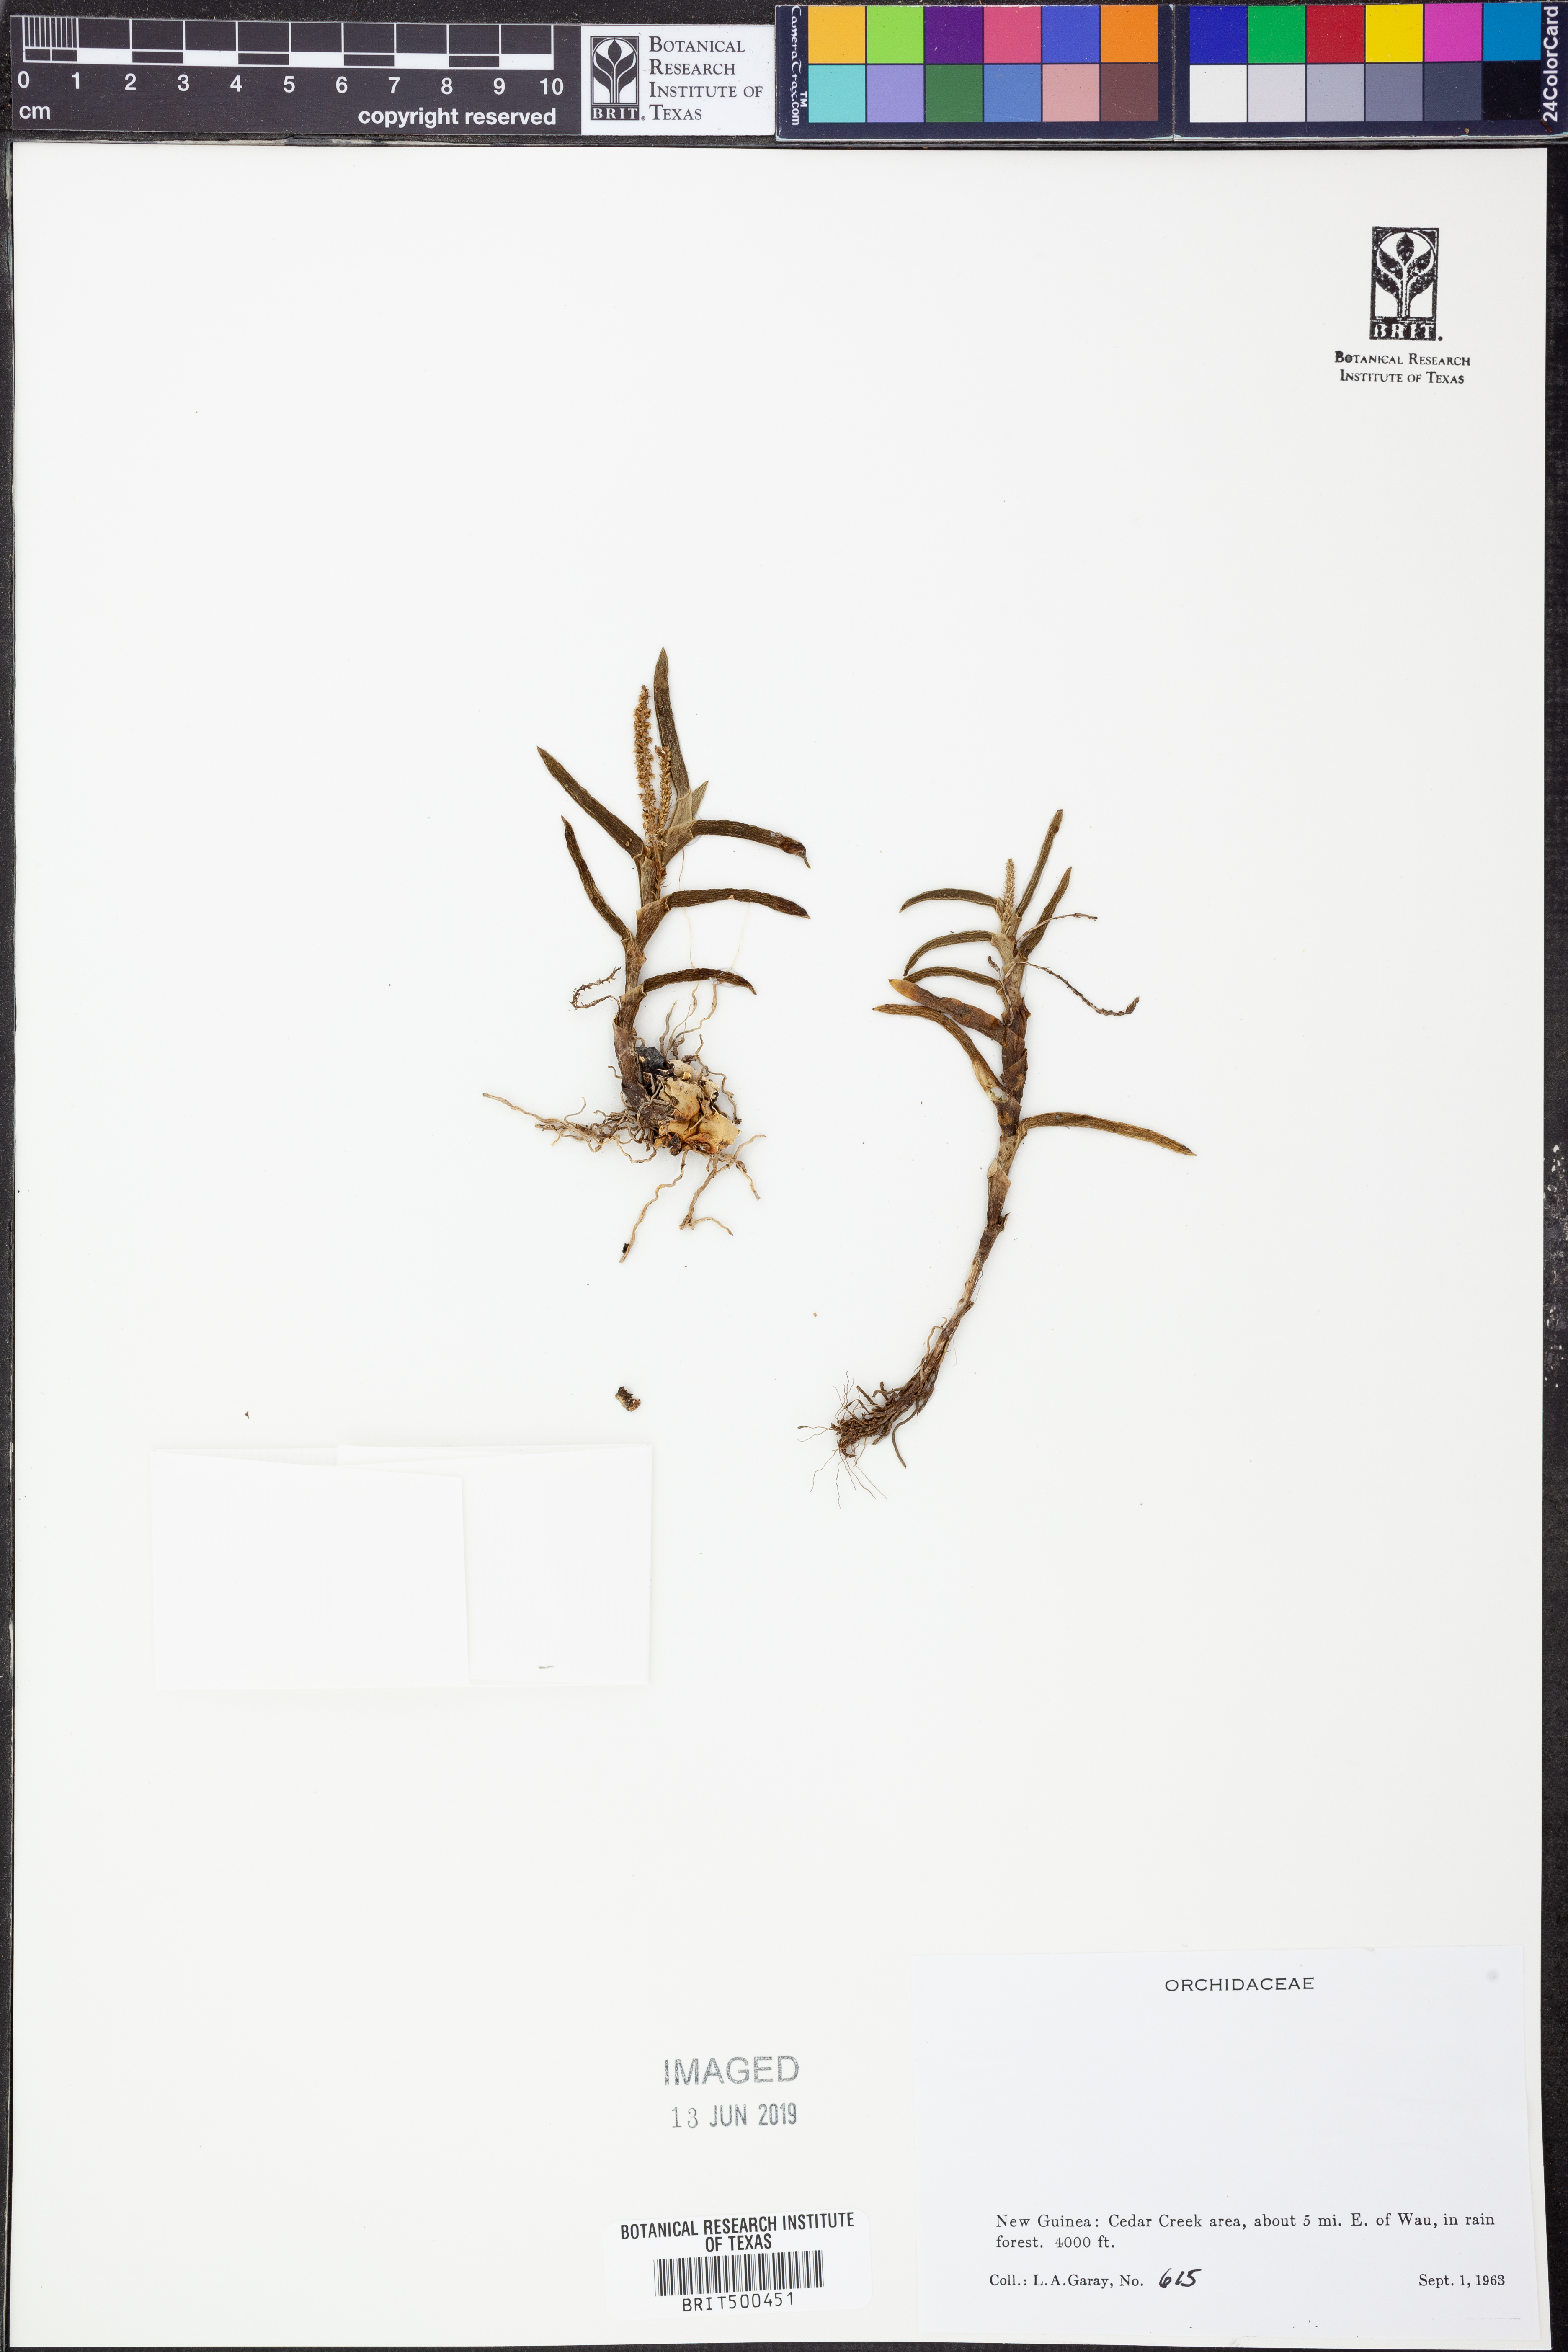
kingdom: Plantae
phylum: Tracheophyta
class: Liliopsida
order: Asparagales
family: Orchidaceae
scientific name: Orchidaceae
